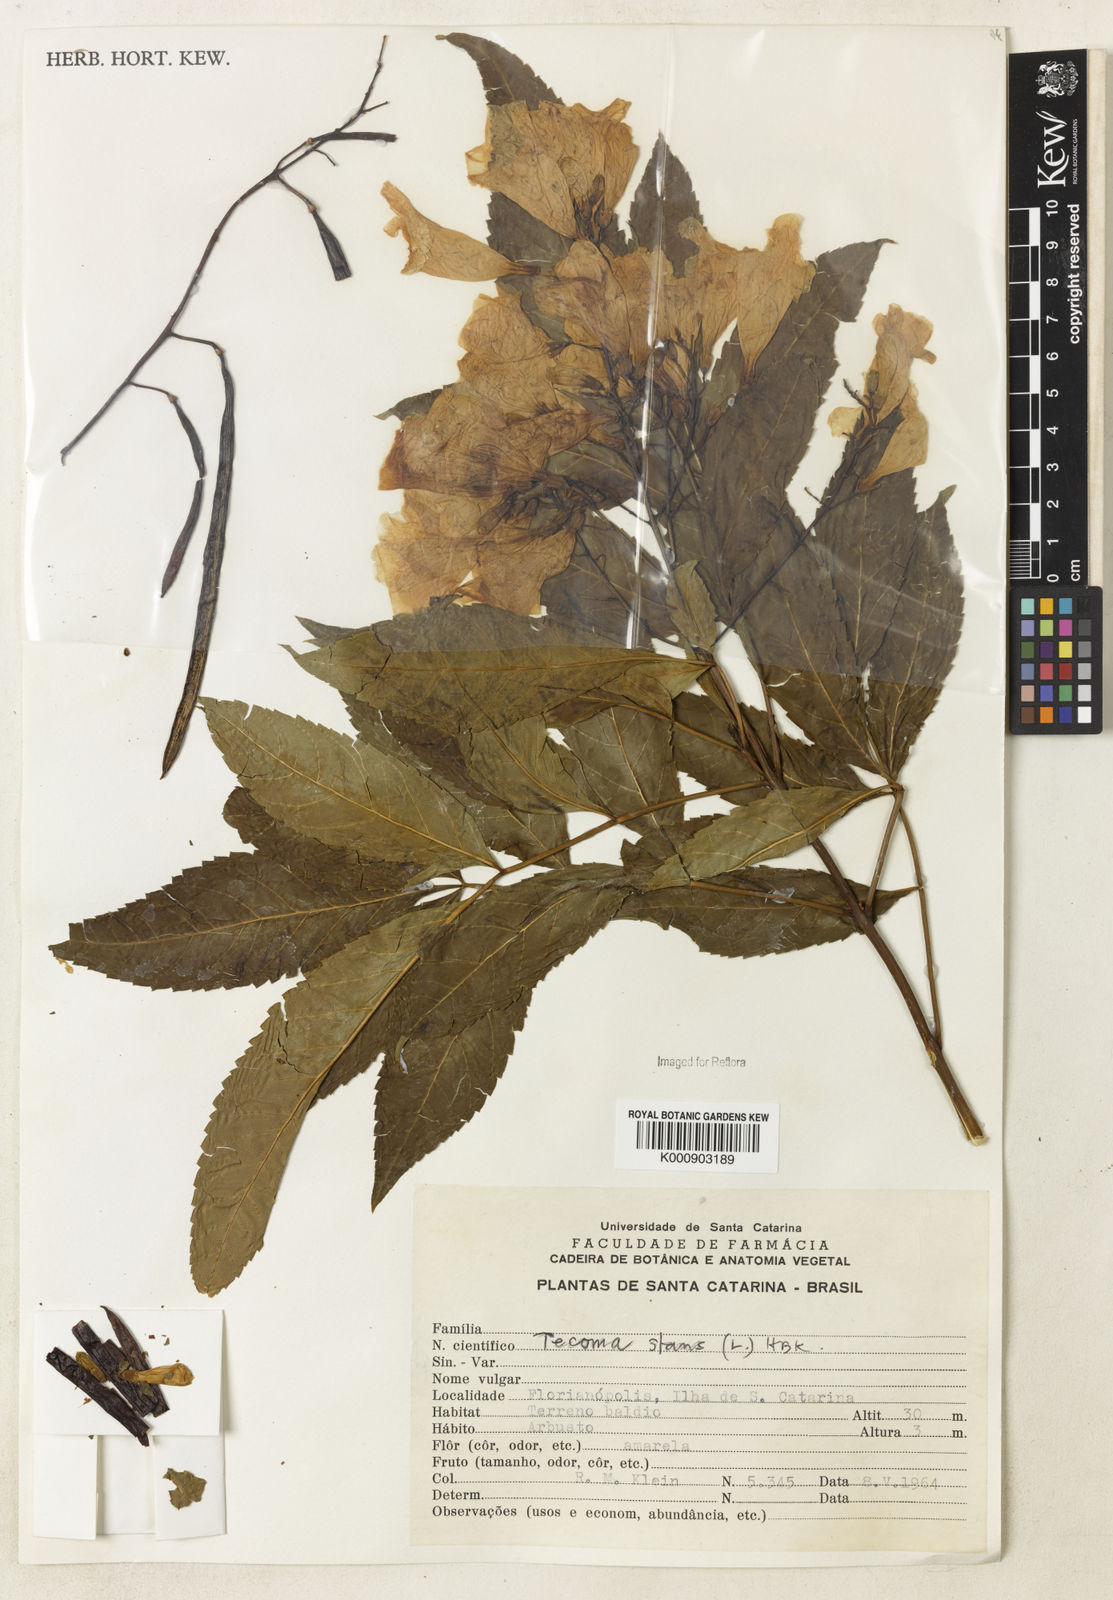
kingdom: Plantae
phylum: Tracheophyta
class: Magnoliopsida
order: Lamiales
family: Bignoniaceae
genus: Tecoma
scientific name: Tecoma stans
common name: Yellow trumpetbush
